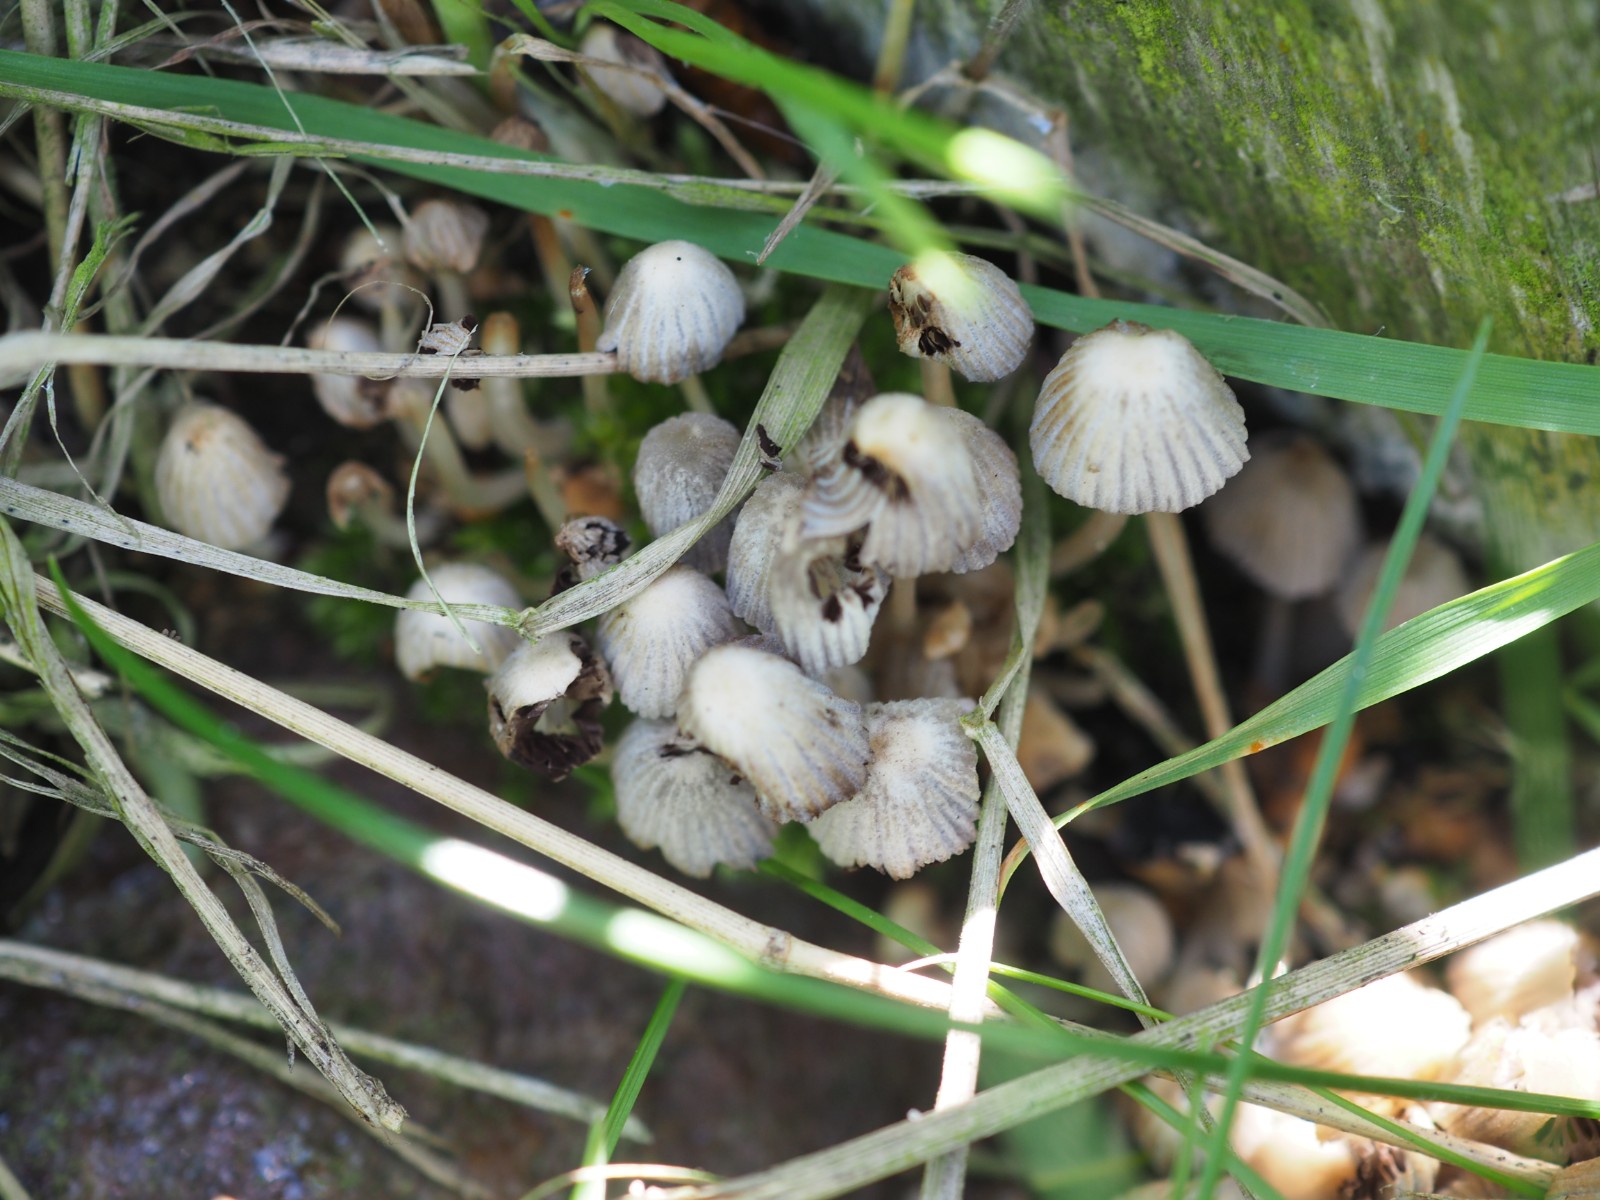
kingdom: Fungi
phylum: Basidiomycota
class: Agaricomycetes
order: Agaricales
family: Psathyrellaceae
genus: Coprinellus
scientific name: Coprinellus disseminatus
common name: bredsået blækhat
